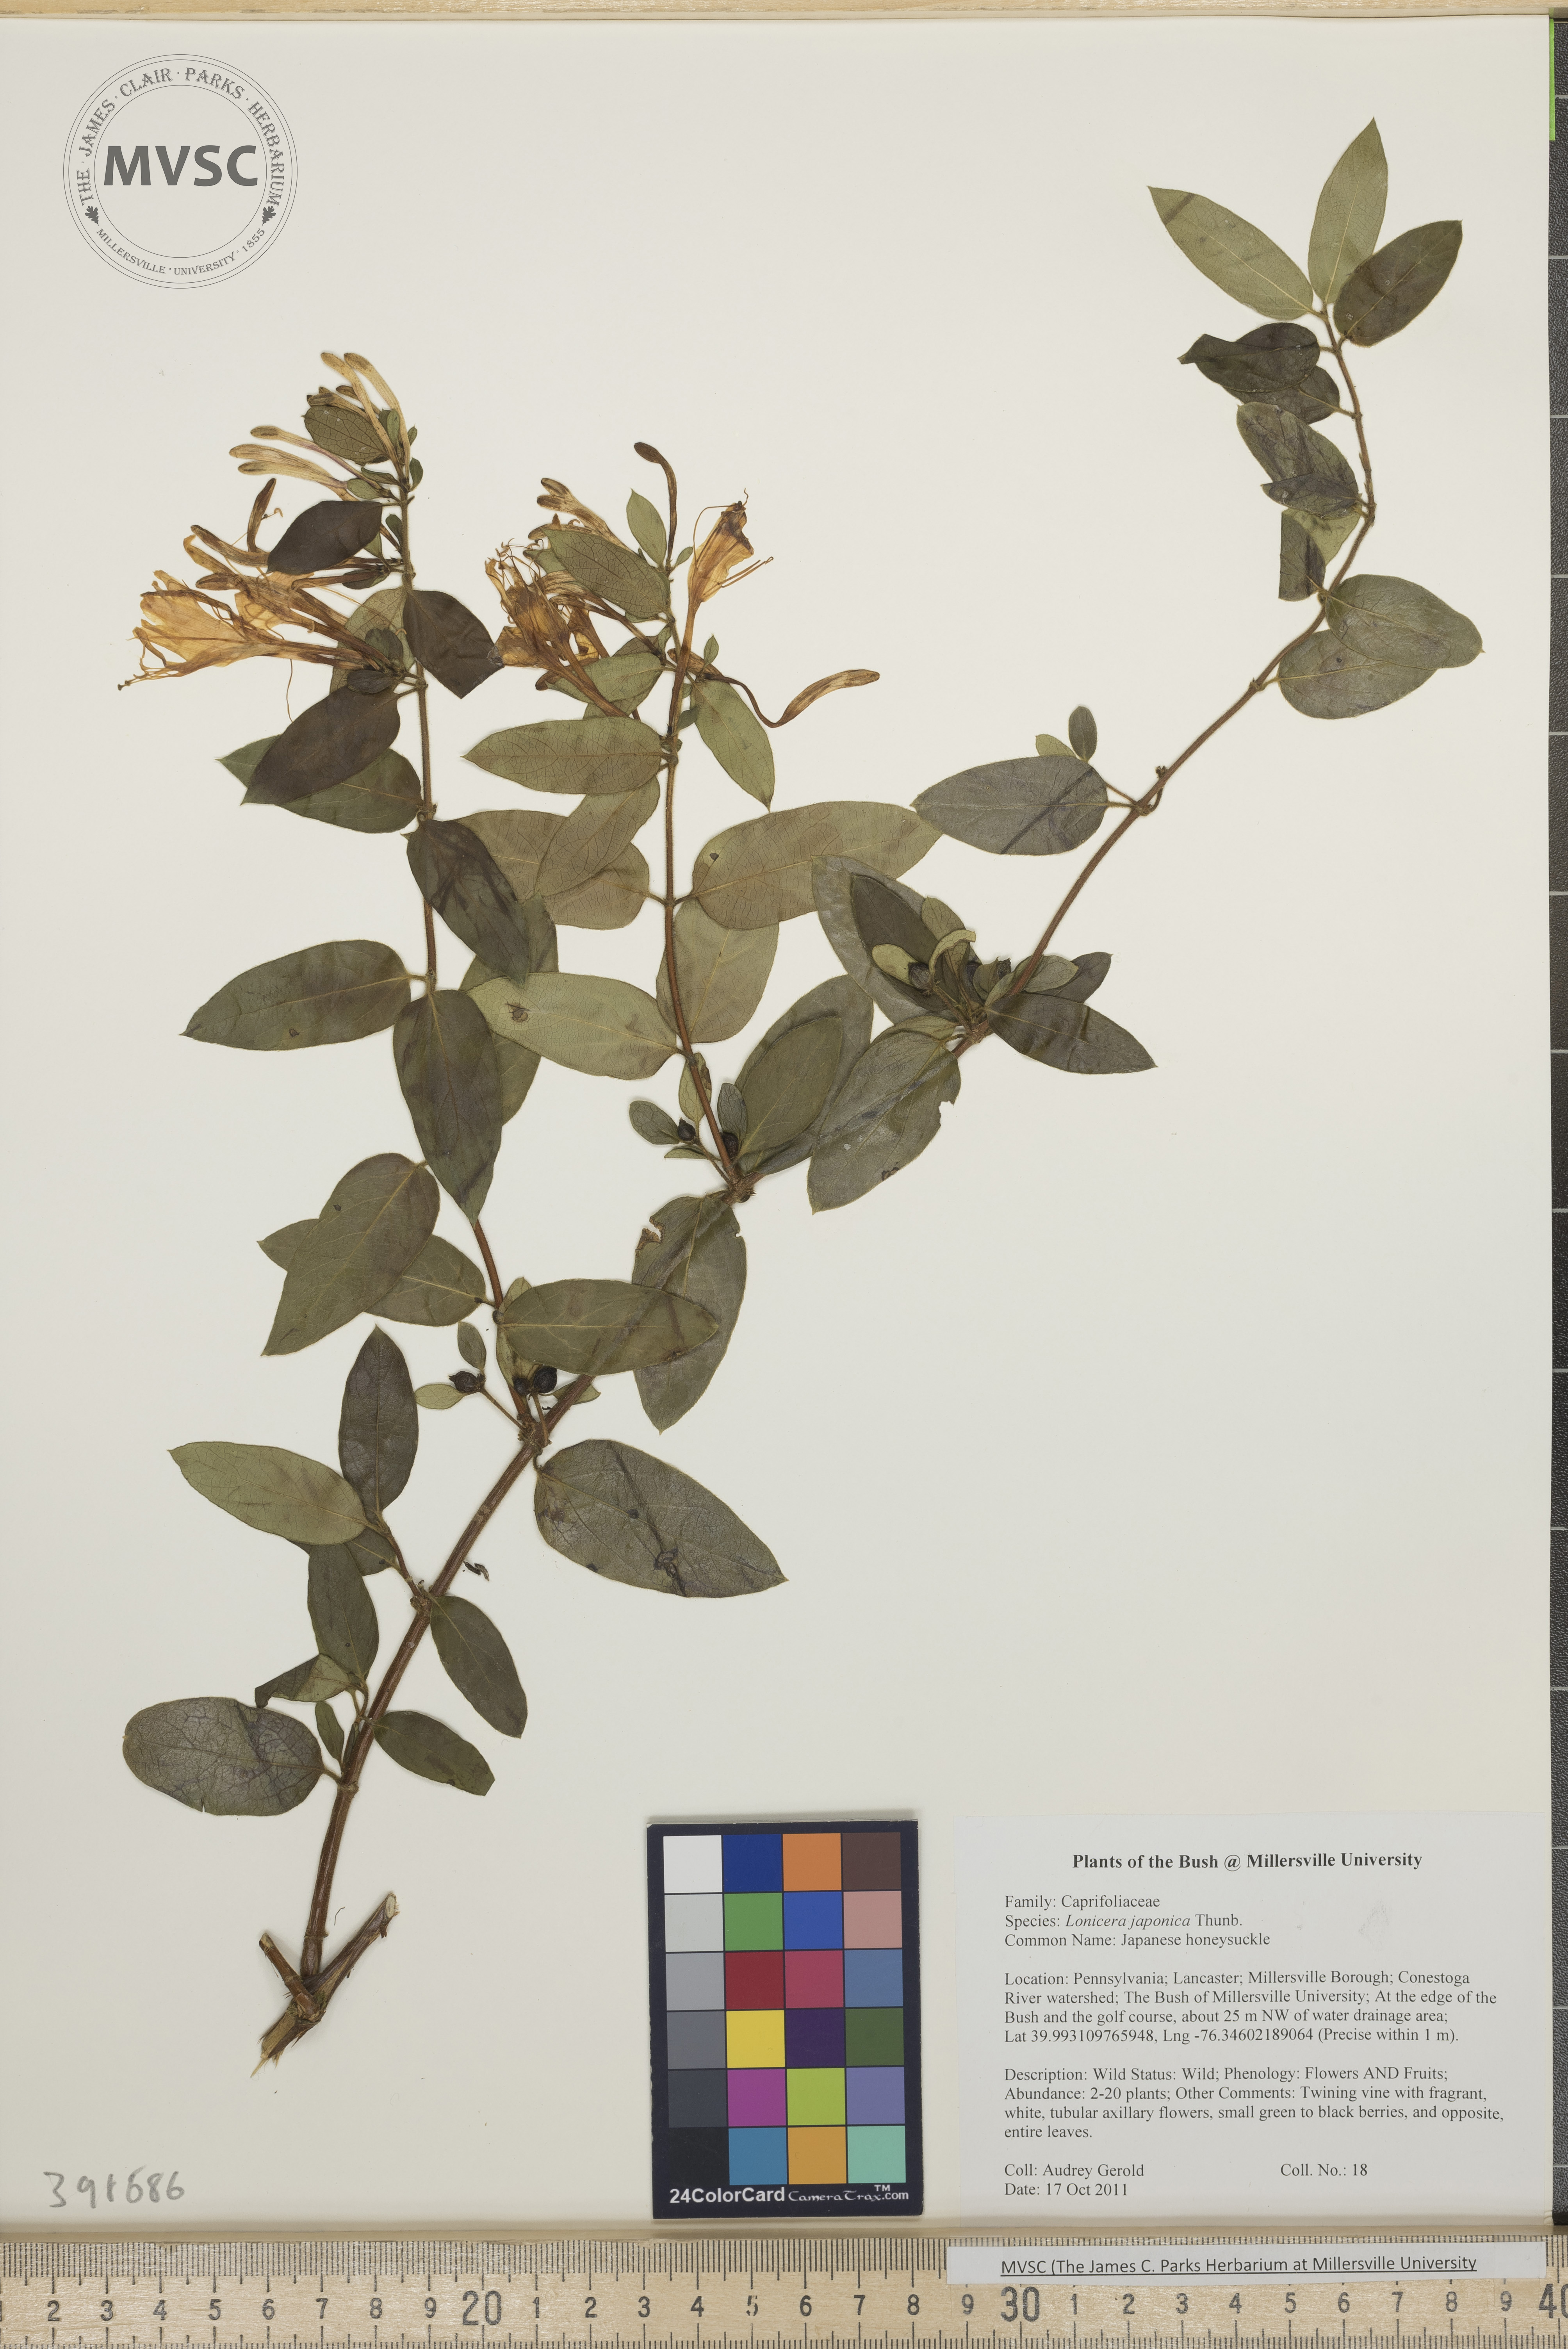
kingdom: Plantae
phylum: Tracheophyta
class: Magnoliopsida
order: Dipsacales
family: Caprifoliaceae
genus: Lonicera
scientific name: Lonicera japonica
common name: Japanese honeysuckle
